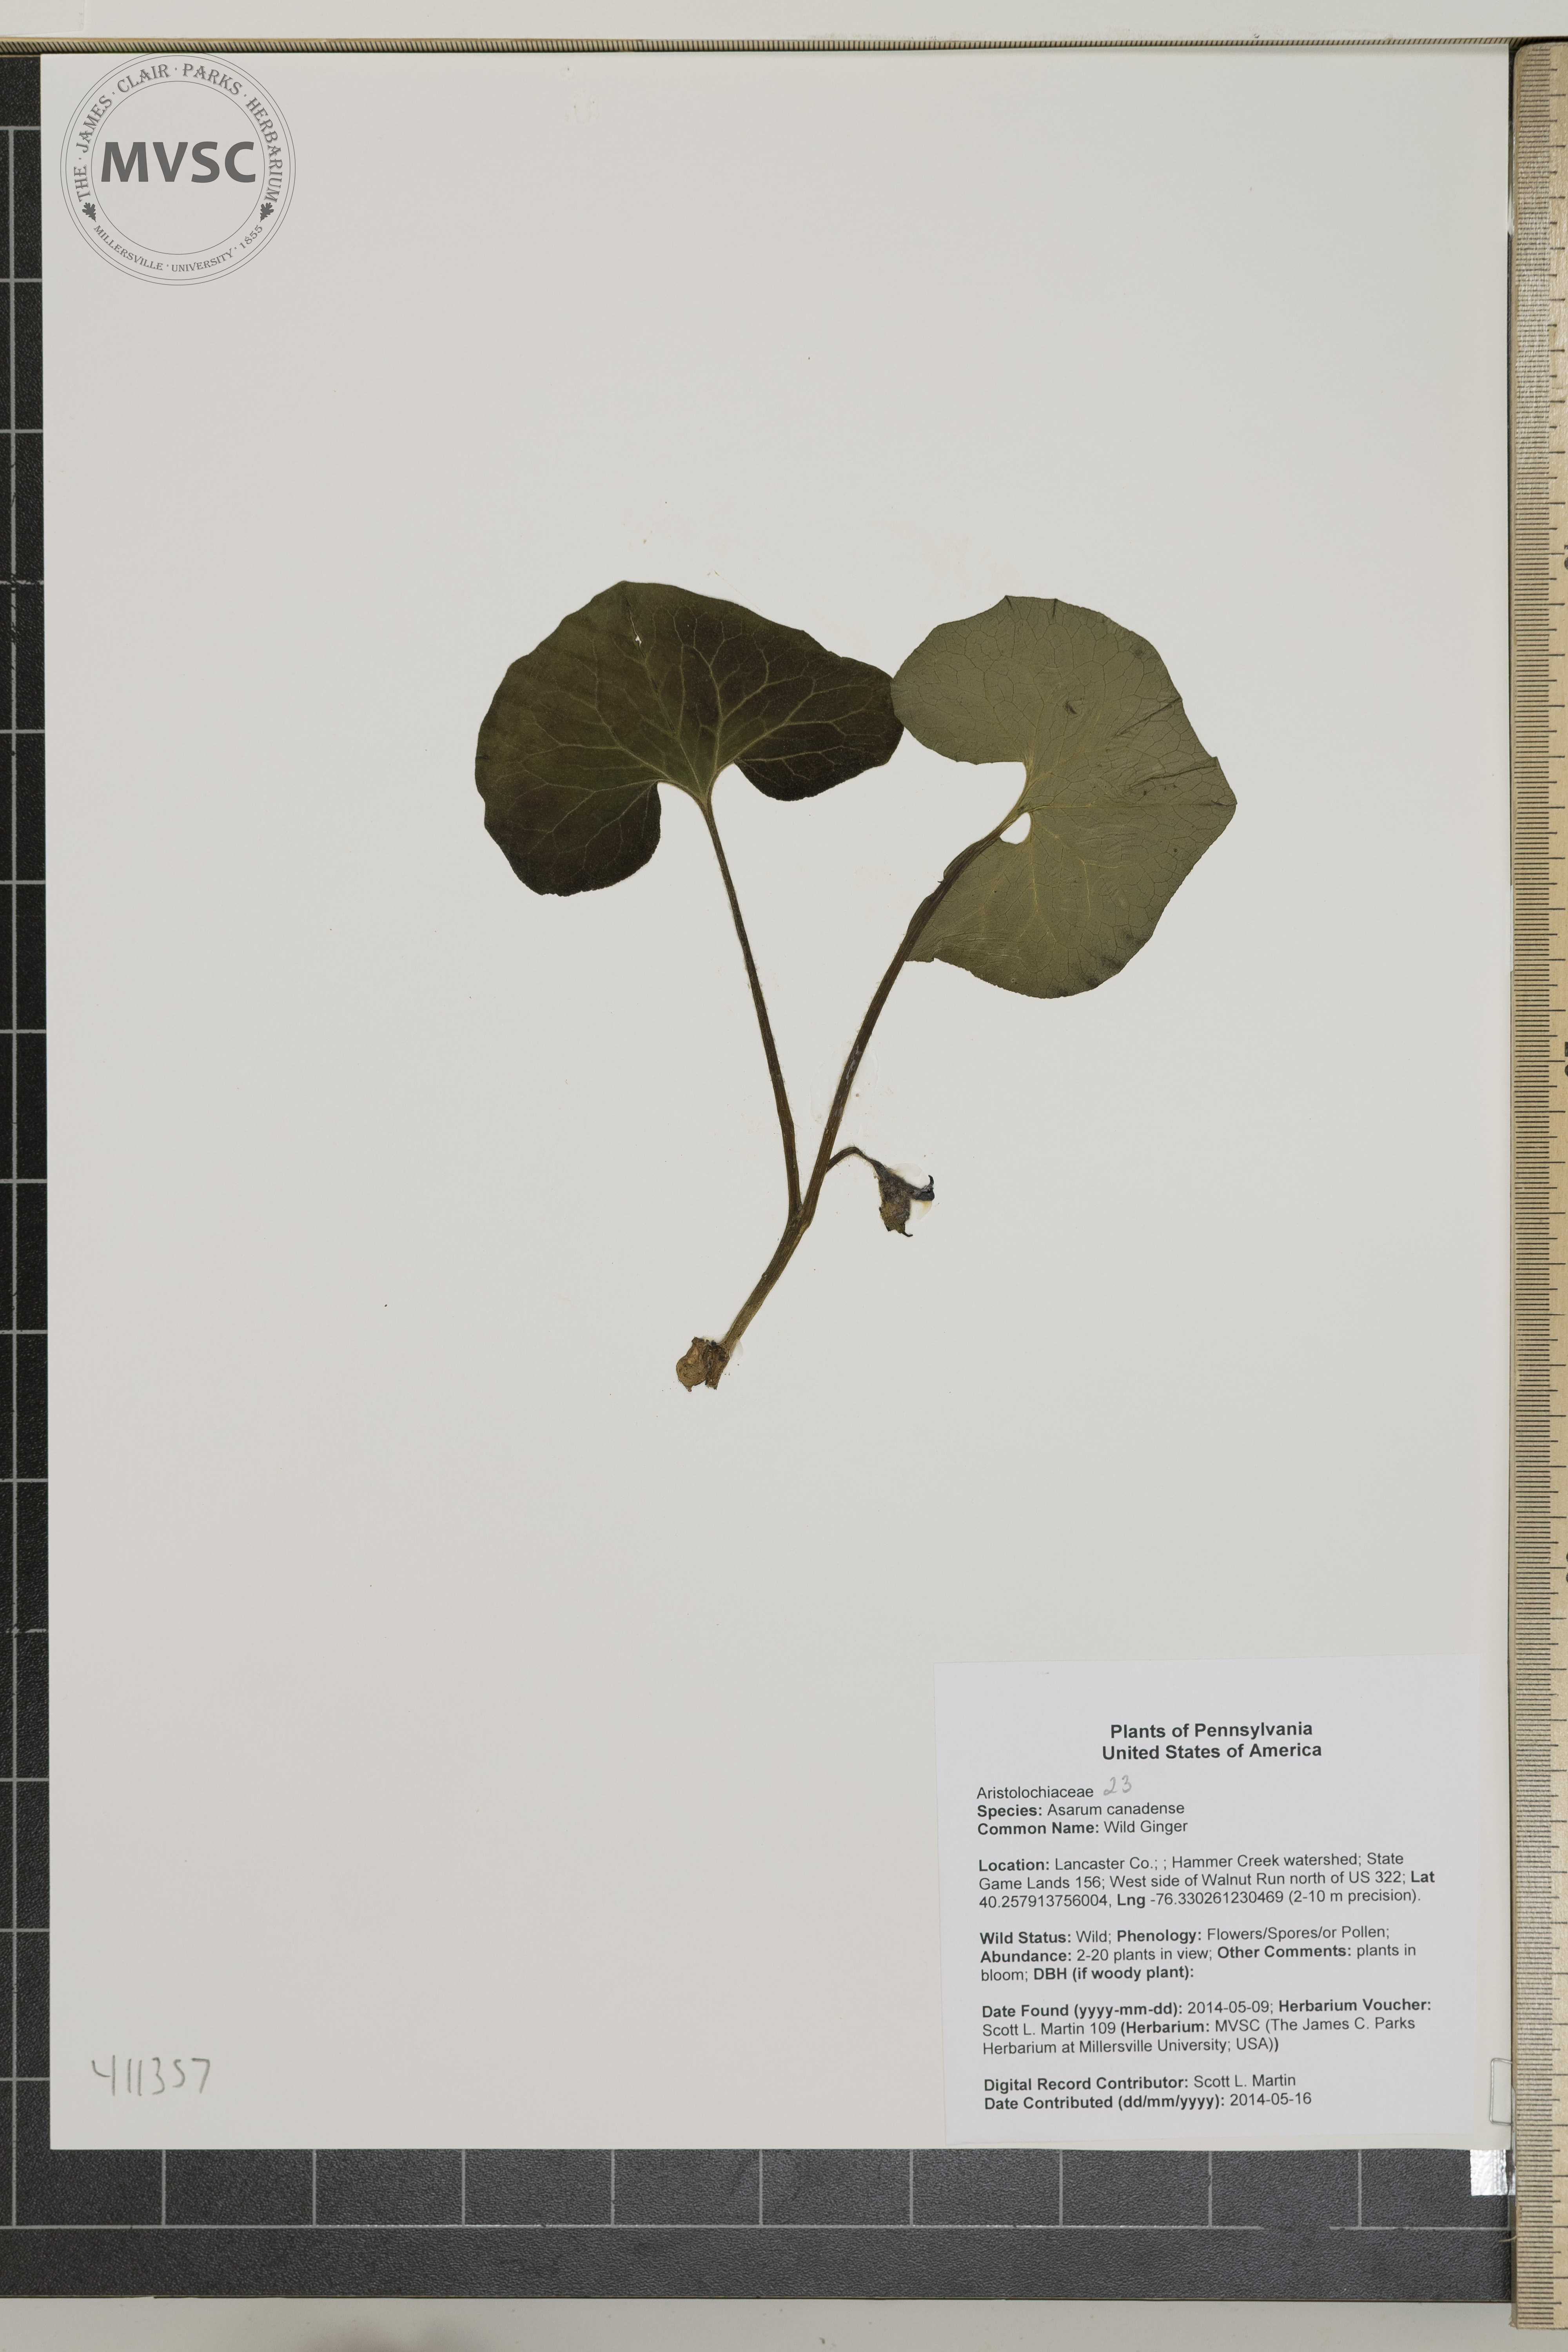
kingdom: Plantae
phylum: Tracheophyta
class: Magnoliopsida
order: Piperales
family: Aristolochiaceae
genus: Asarum
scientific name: Asarum canadense
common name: Wild Ginger
